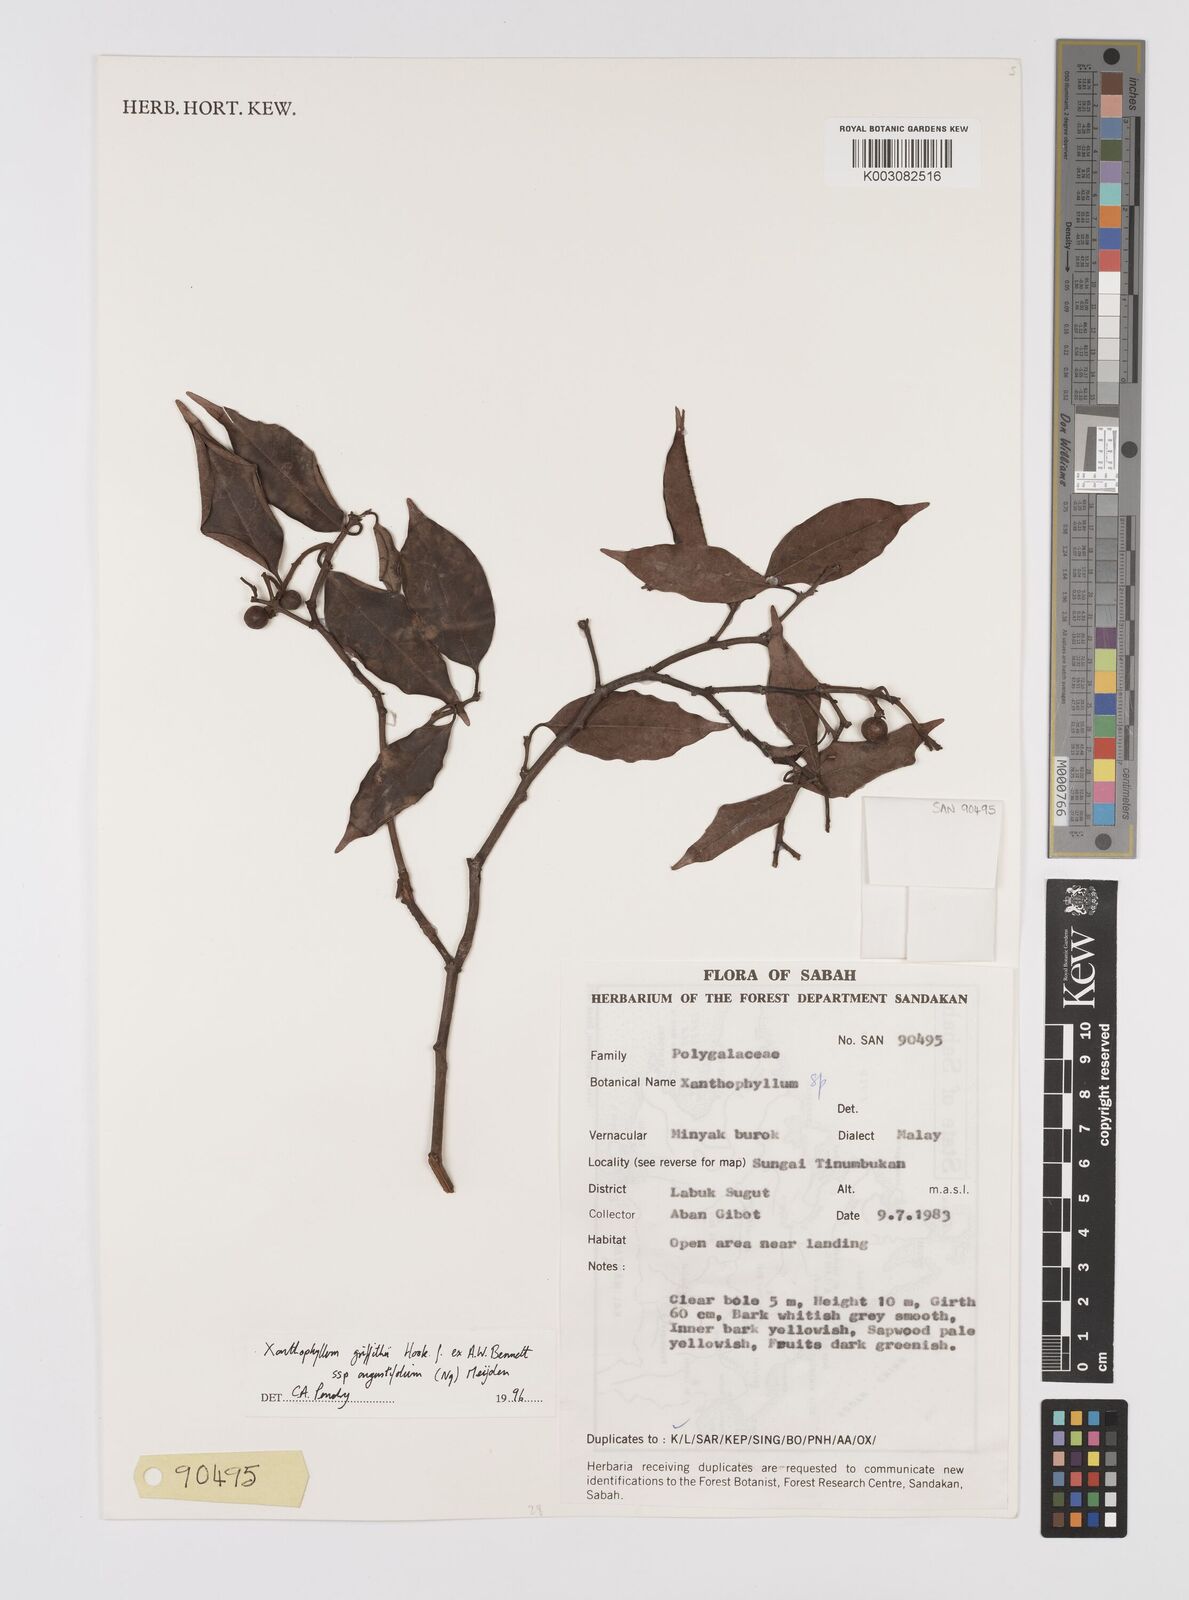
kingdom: Plantae
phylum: Tracheophyta
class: Magnoliopsida
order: Fabales
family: Polygalaceae
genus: Xanthophyllum
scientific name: Xanthophyllum griffithii
